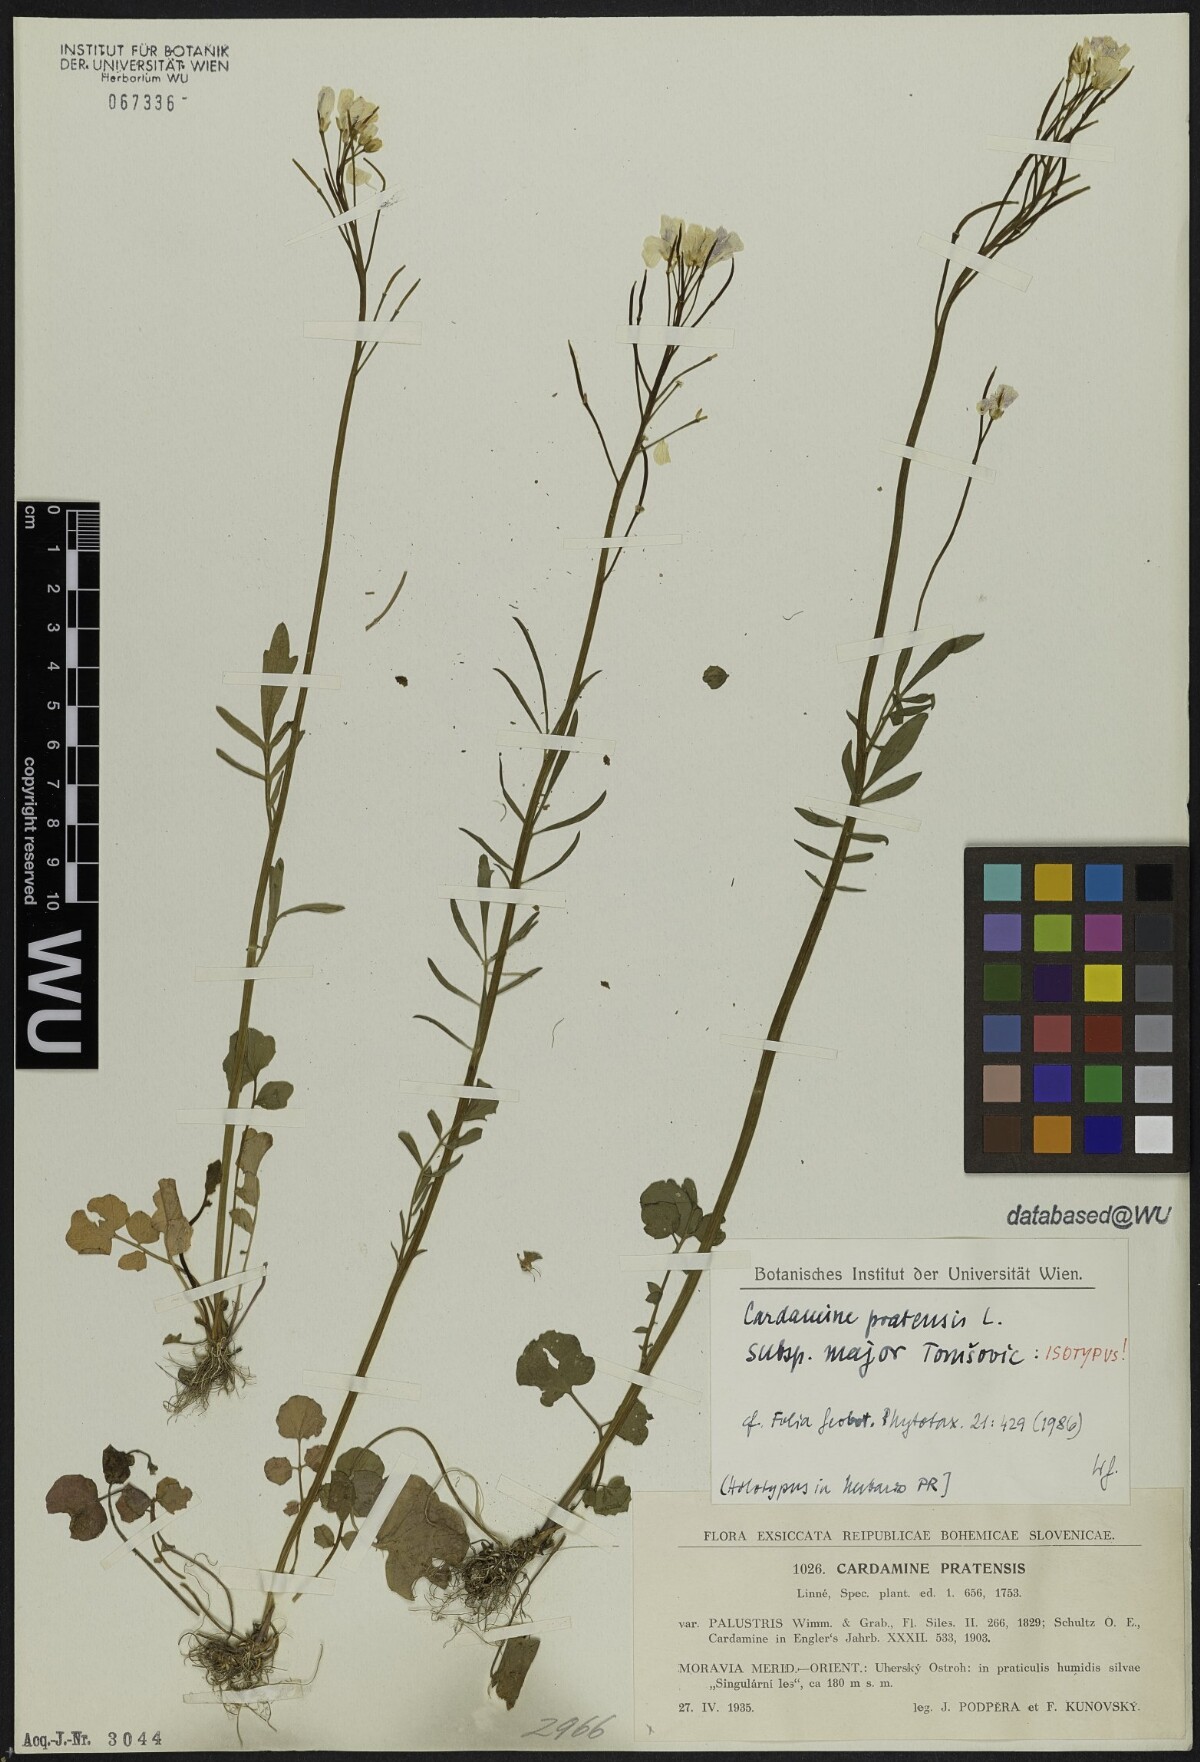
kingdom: Plantae
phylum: Tracheophyta
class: Magnoliopsida
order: Brassicales
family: Brassicaceae
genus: Cardamine
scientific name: Cardamine pratensis
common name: Cuckoo flower
